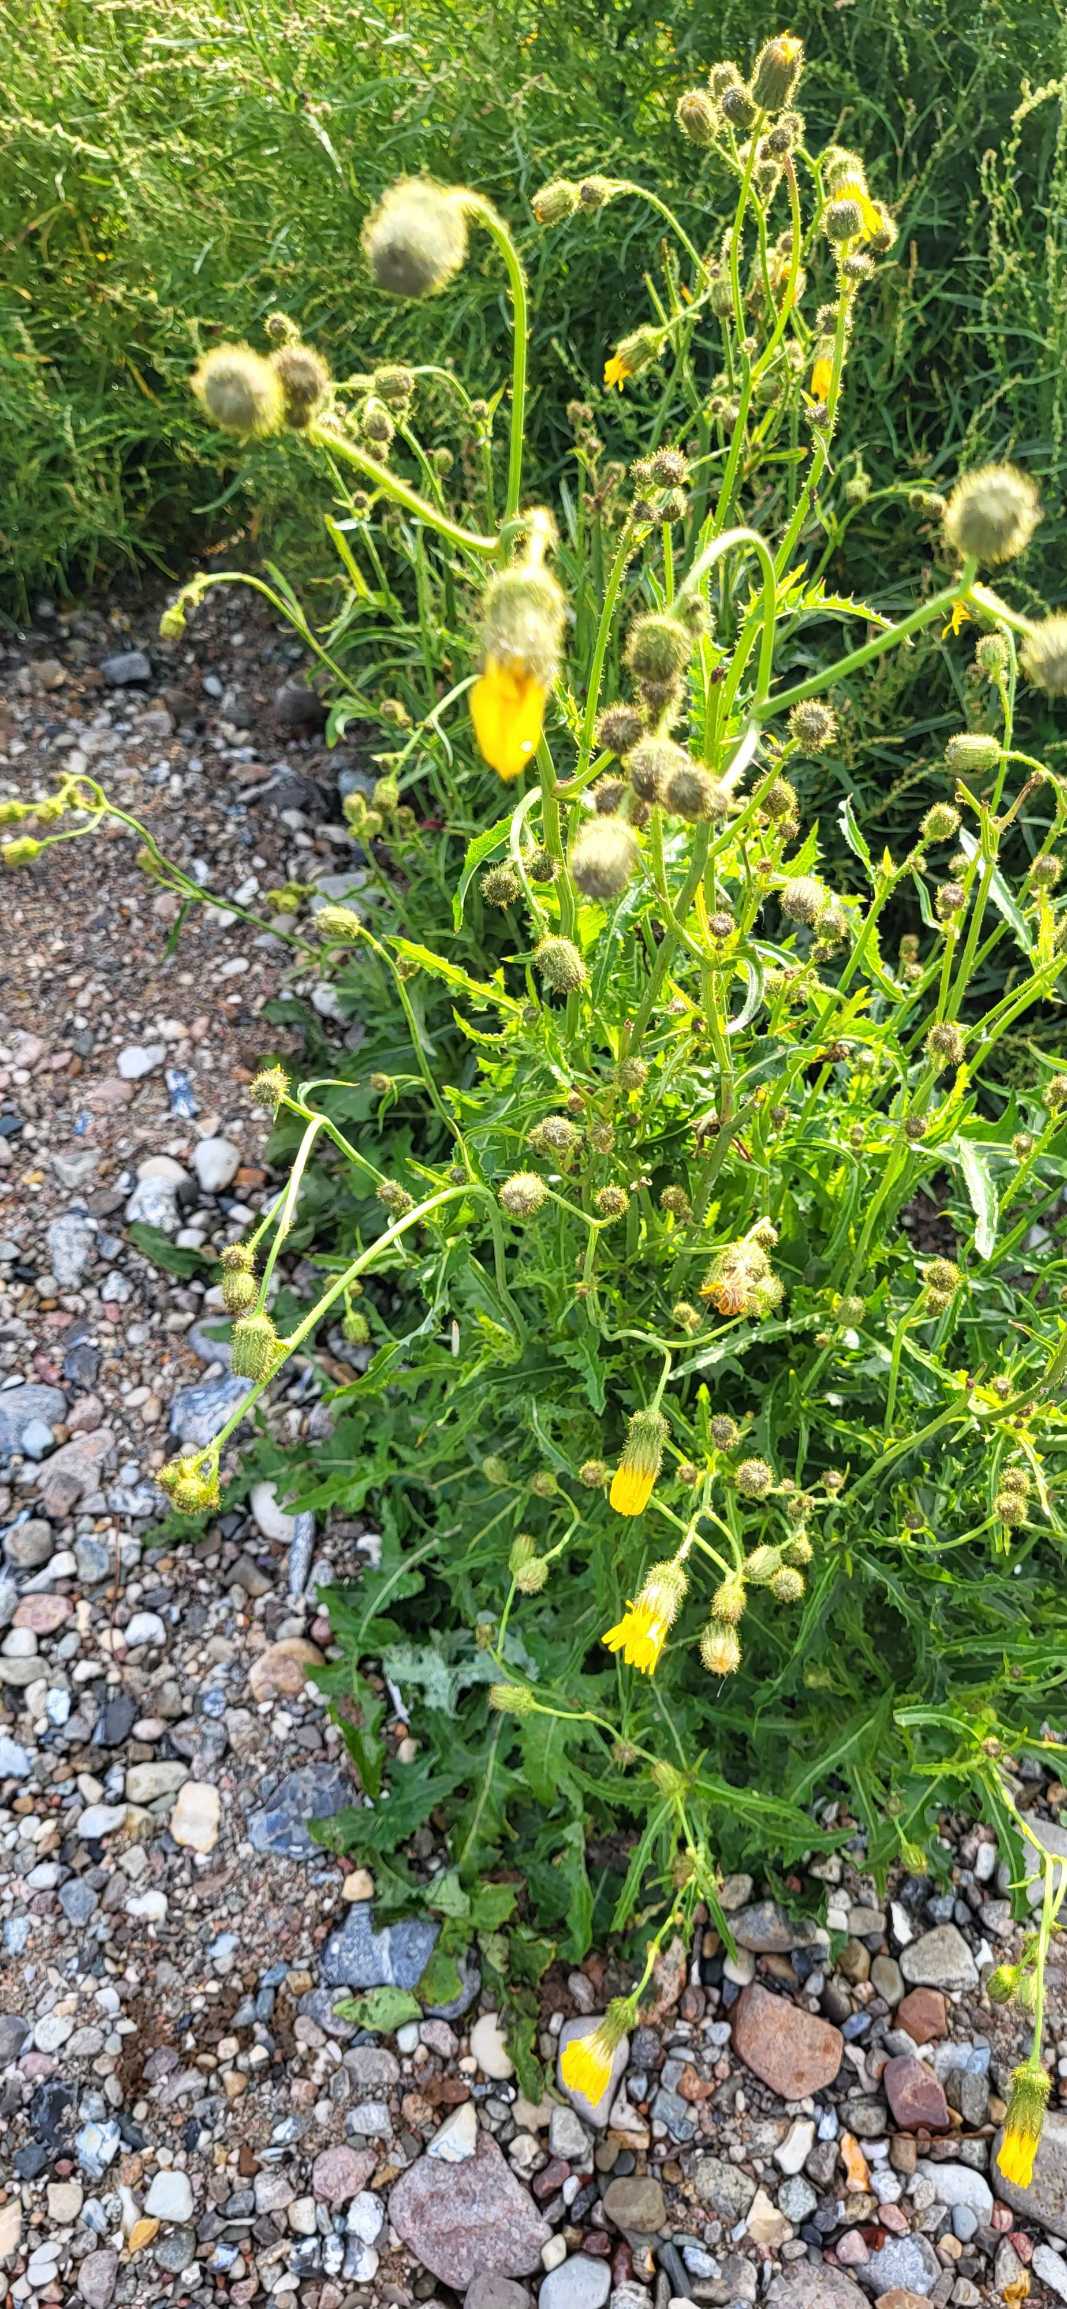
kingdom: Plantae
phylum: Tracheophyta
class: Magnoliopsida
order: Asterales
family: Asteraceae
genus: Sonchus
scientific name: Sonchus arvensis
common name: Ager-svinemælk
